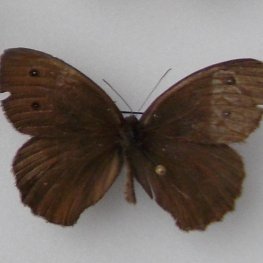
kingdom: Animalia
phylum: Arthropoda
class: Insecta
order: Lepidoptera
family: Nymphalidae
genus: Cercyonis
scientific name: Cercyonis pegala
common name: Common Wood-Nymph
